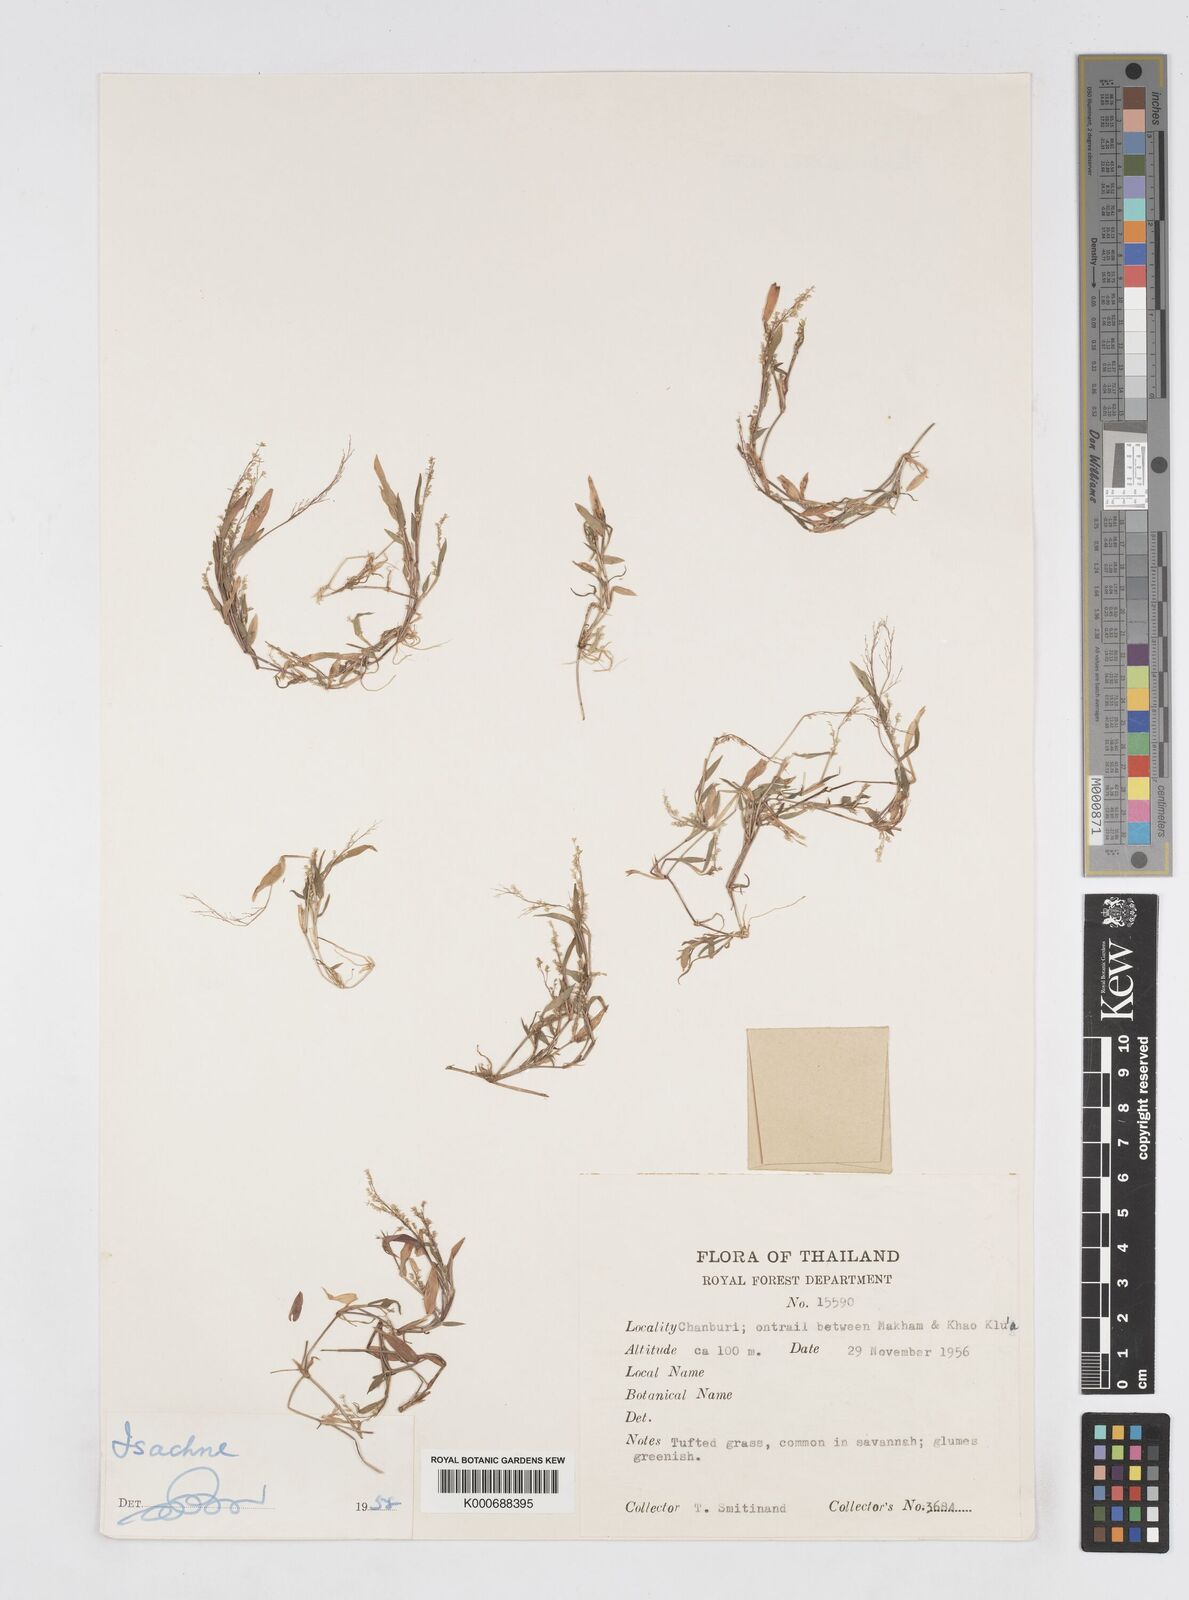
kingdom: Plantae
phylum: Tracheophyta
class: Liliopsida
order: Poales
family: Poaceae
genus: Isachne
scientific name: Isachne
